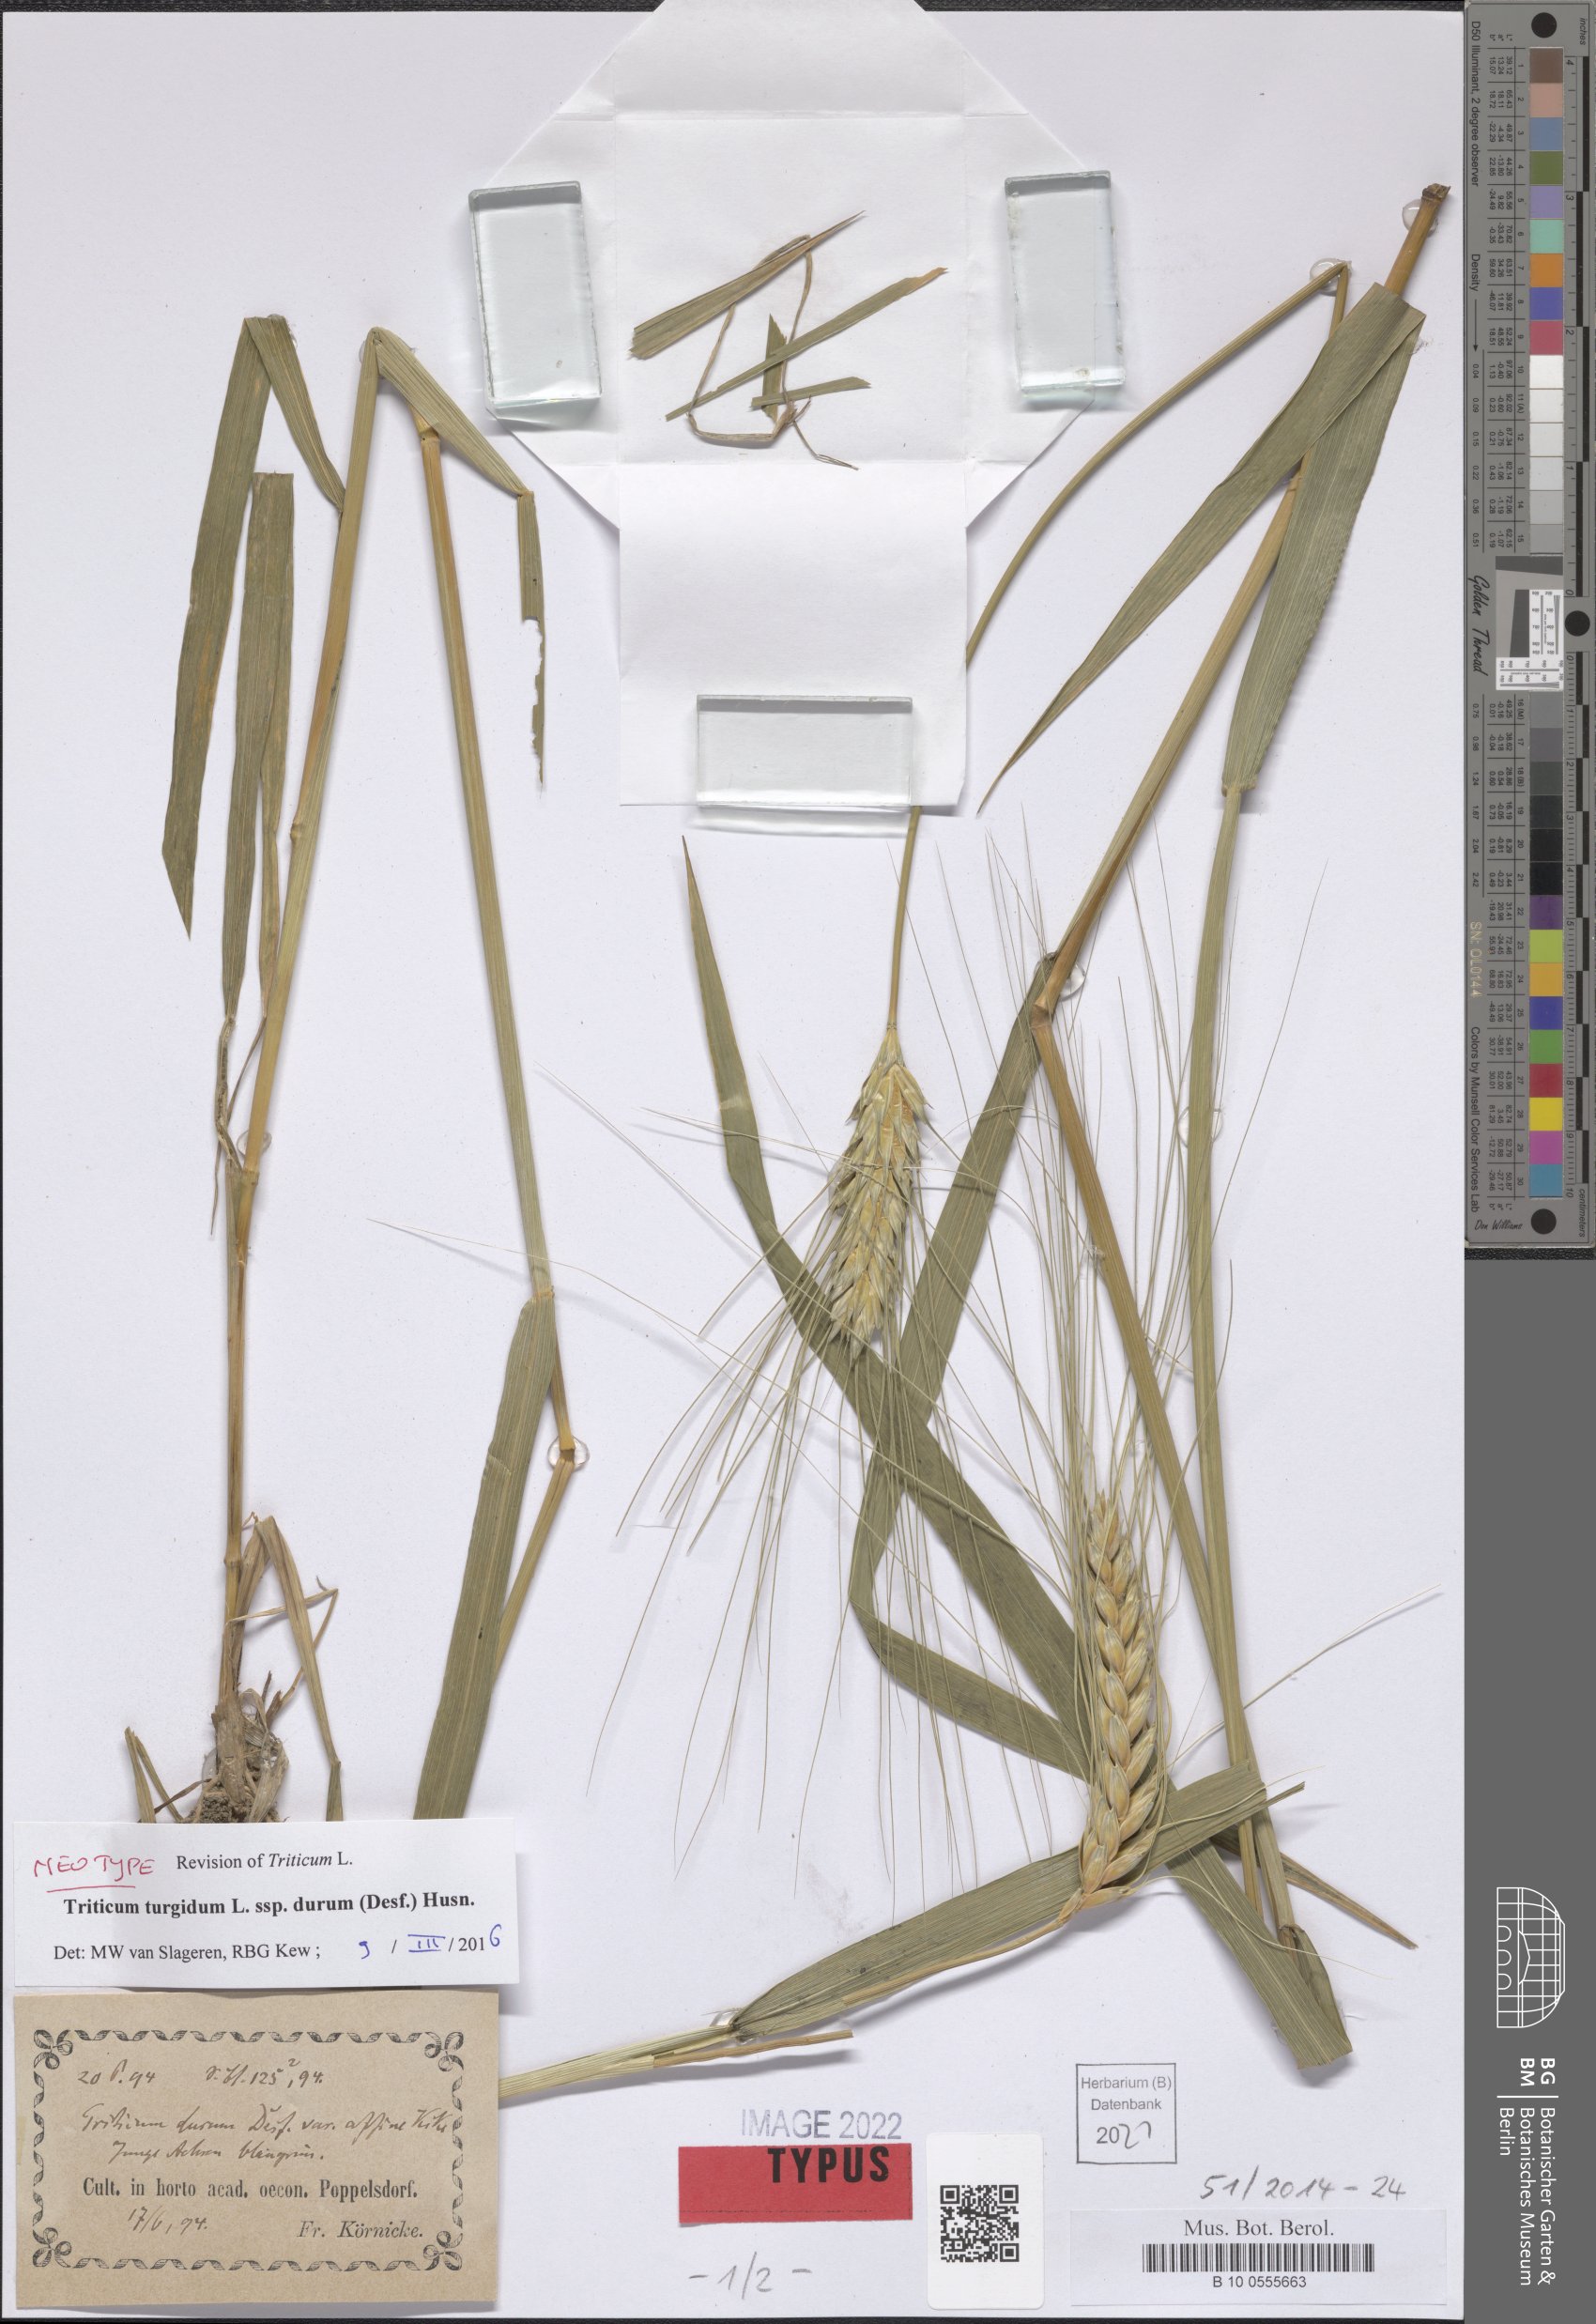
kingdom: Plantae
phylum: Tracheophyta
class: Liliopsida
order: Poales
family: Poaceae
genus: Triticum
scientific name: Triticum turgidum
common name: Rivet wheat
